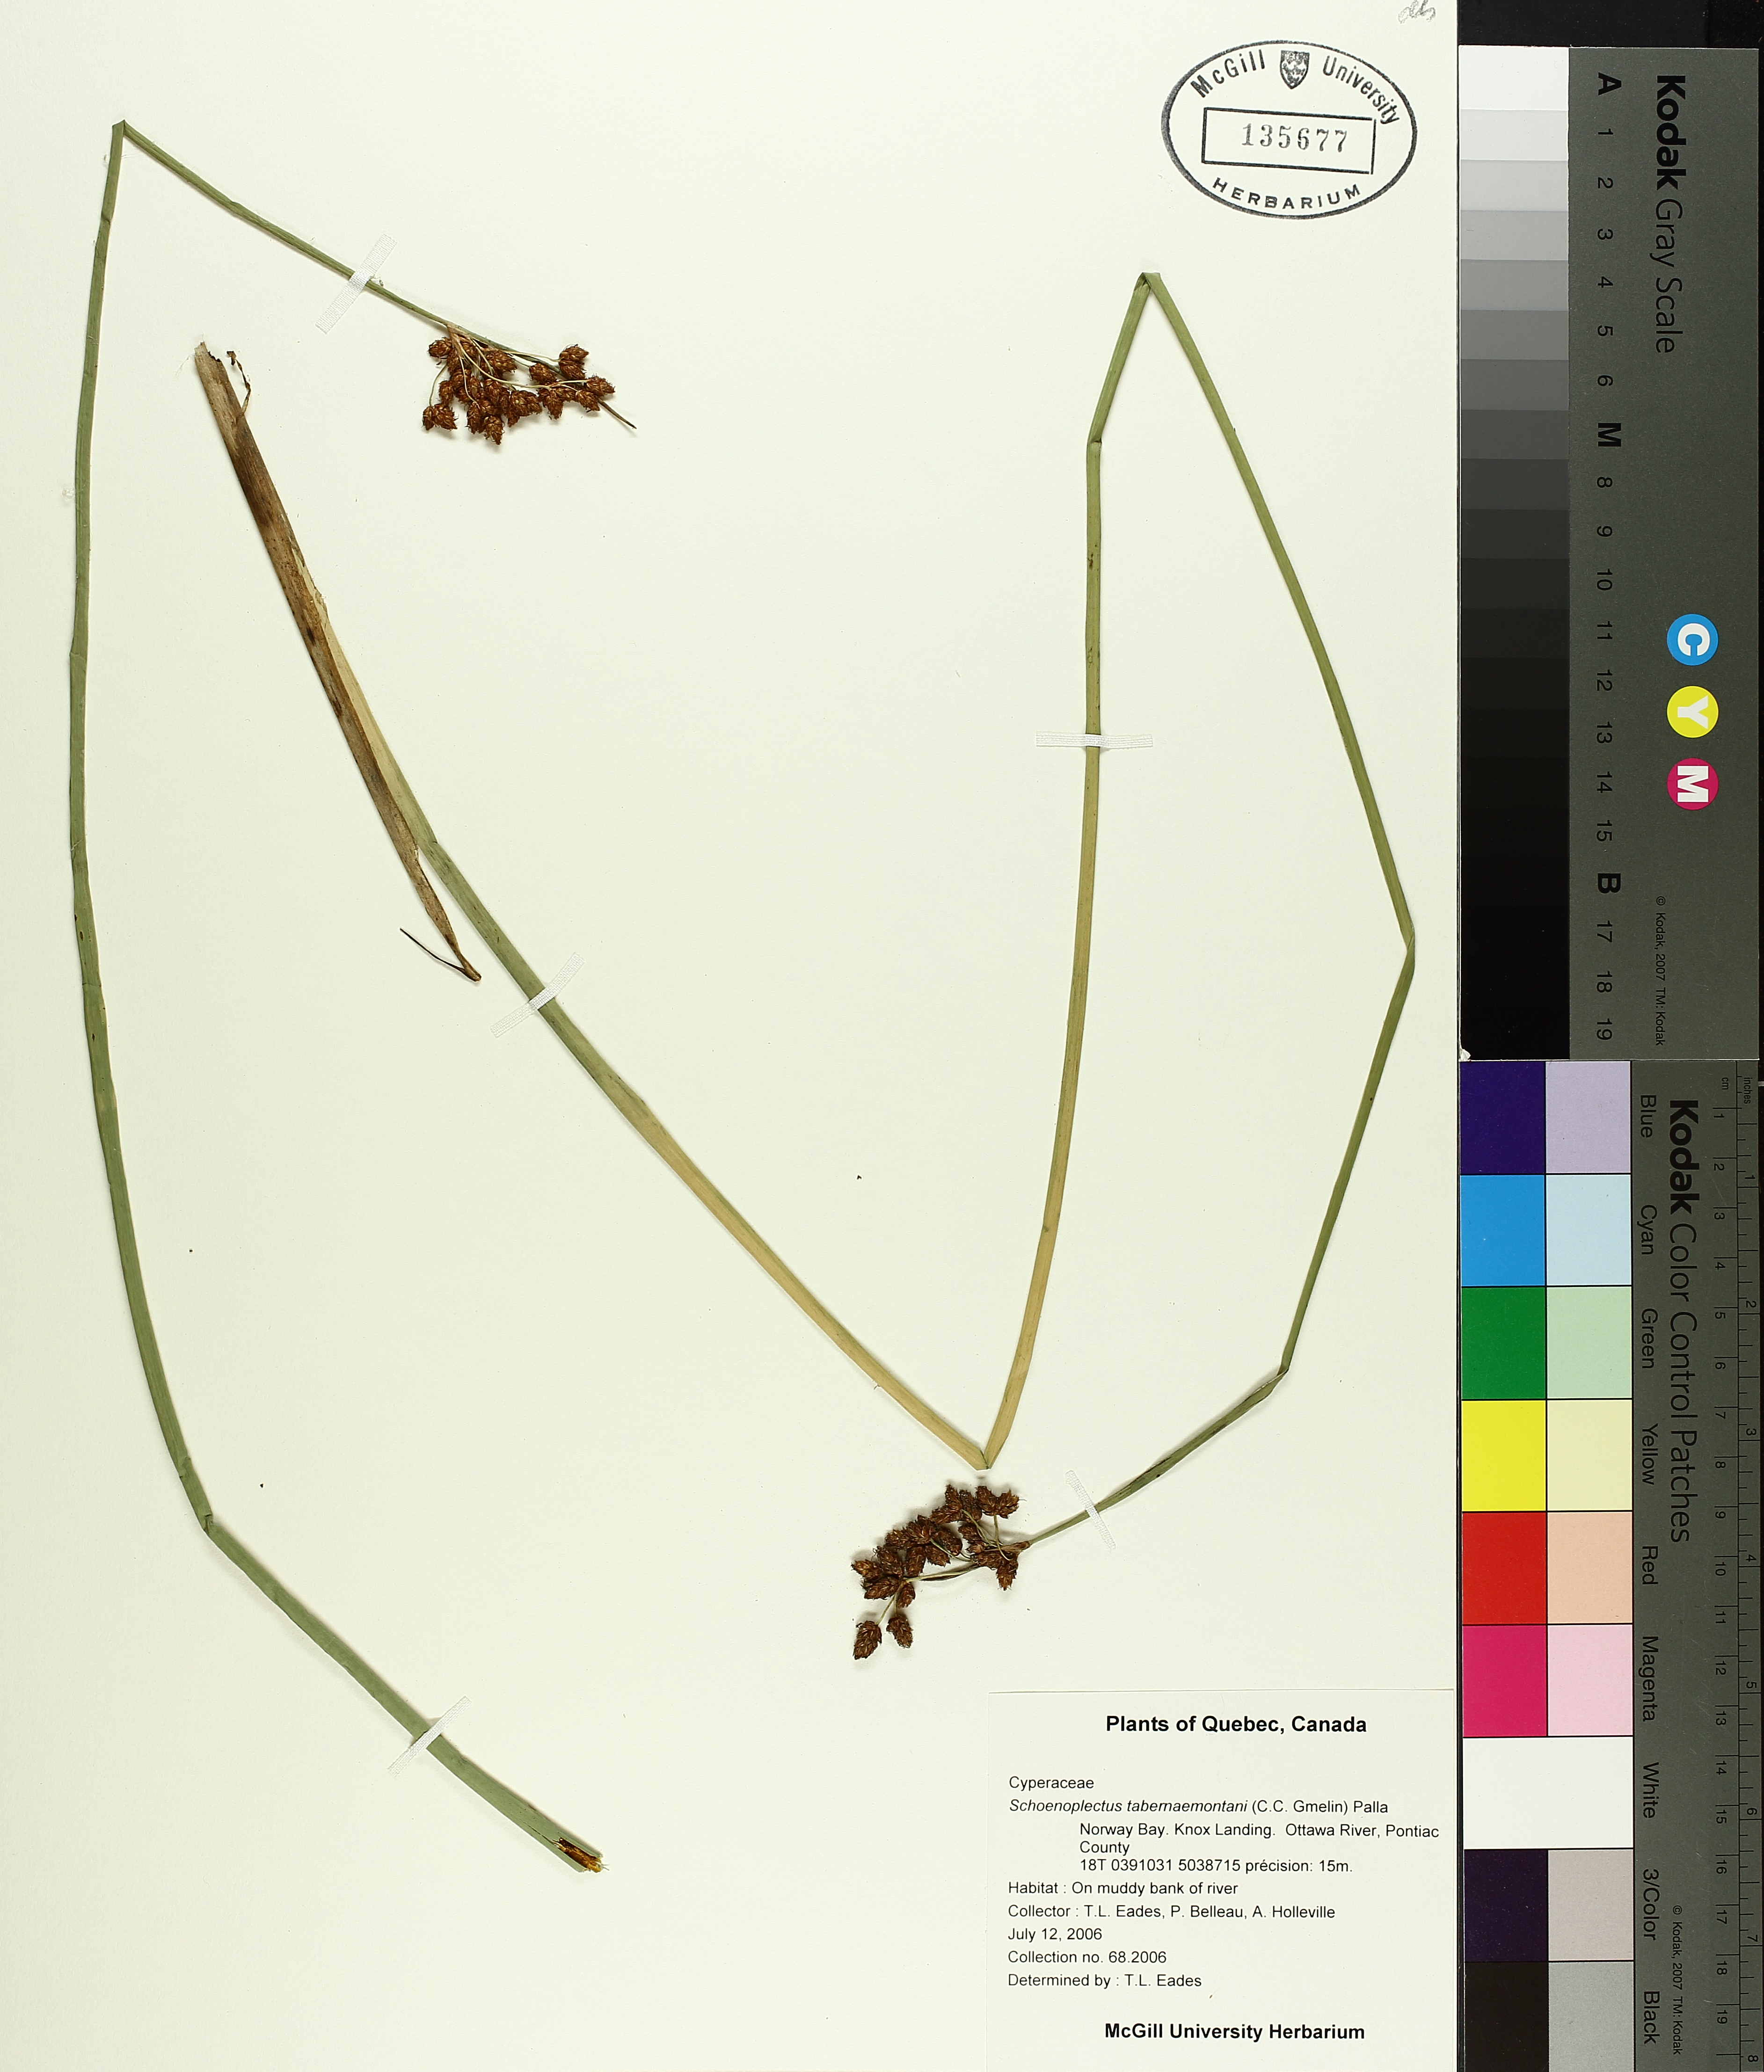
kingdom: Plantae
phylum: Tracheophyta
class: Liliopsida
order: Poales
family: Cyperaceae
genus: Schoenoplectus
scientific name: Schoenoplectus tabernaemontani
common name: Grey club-rush
